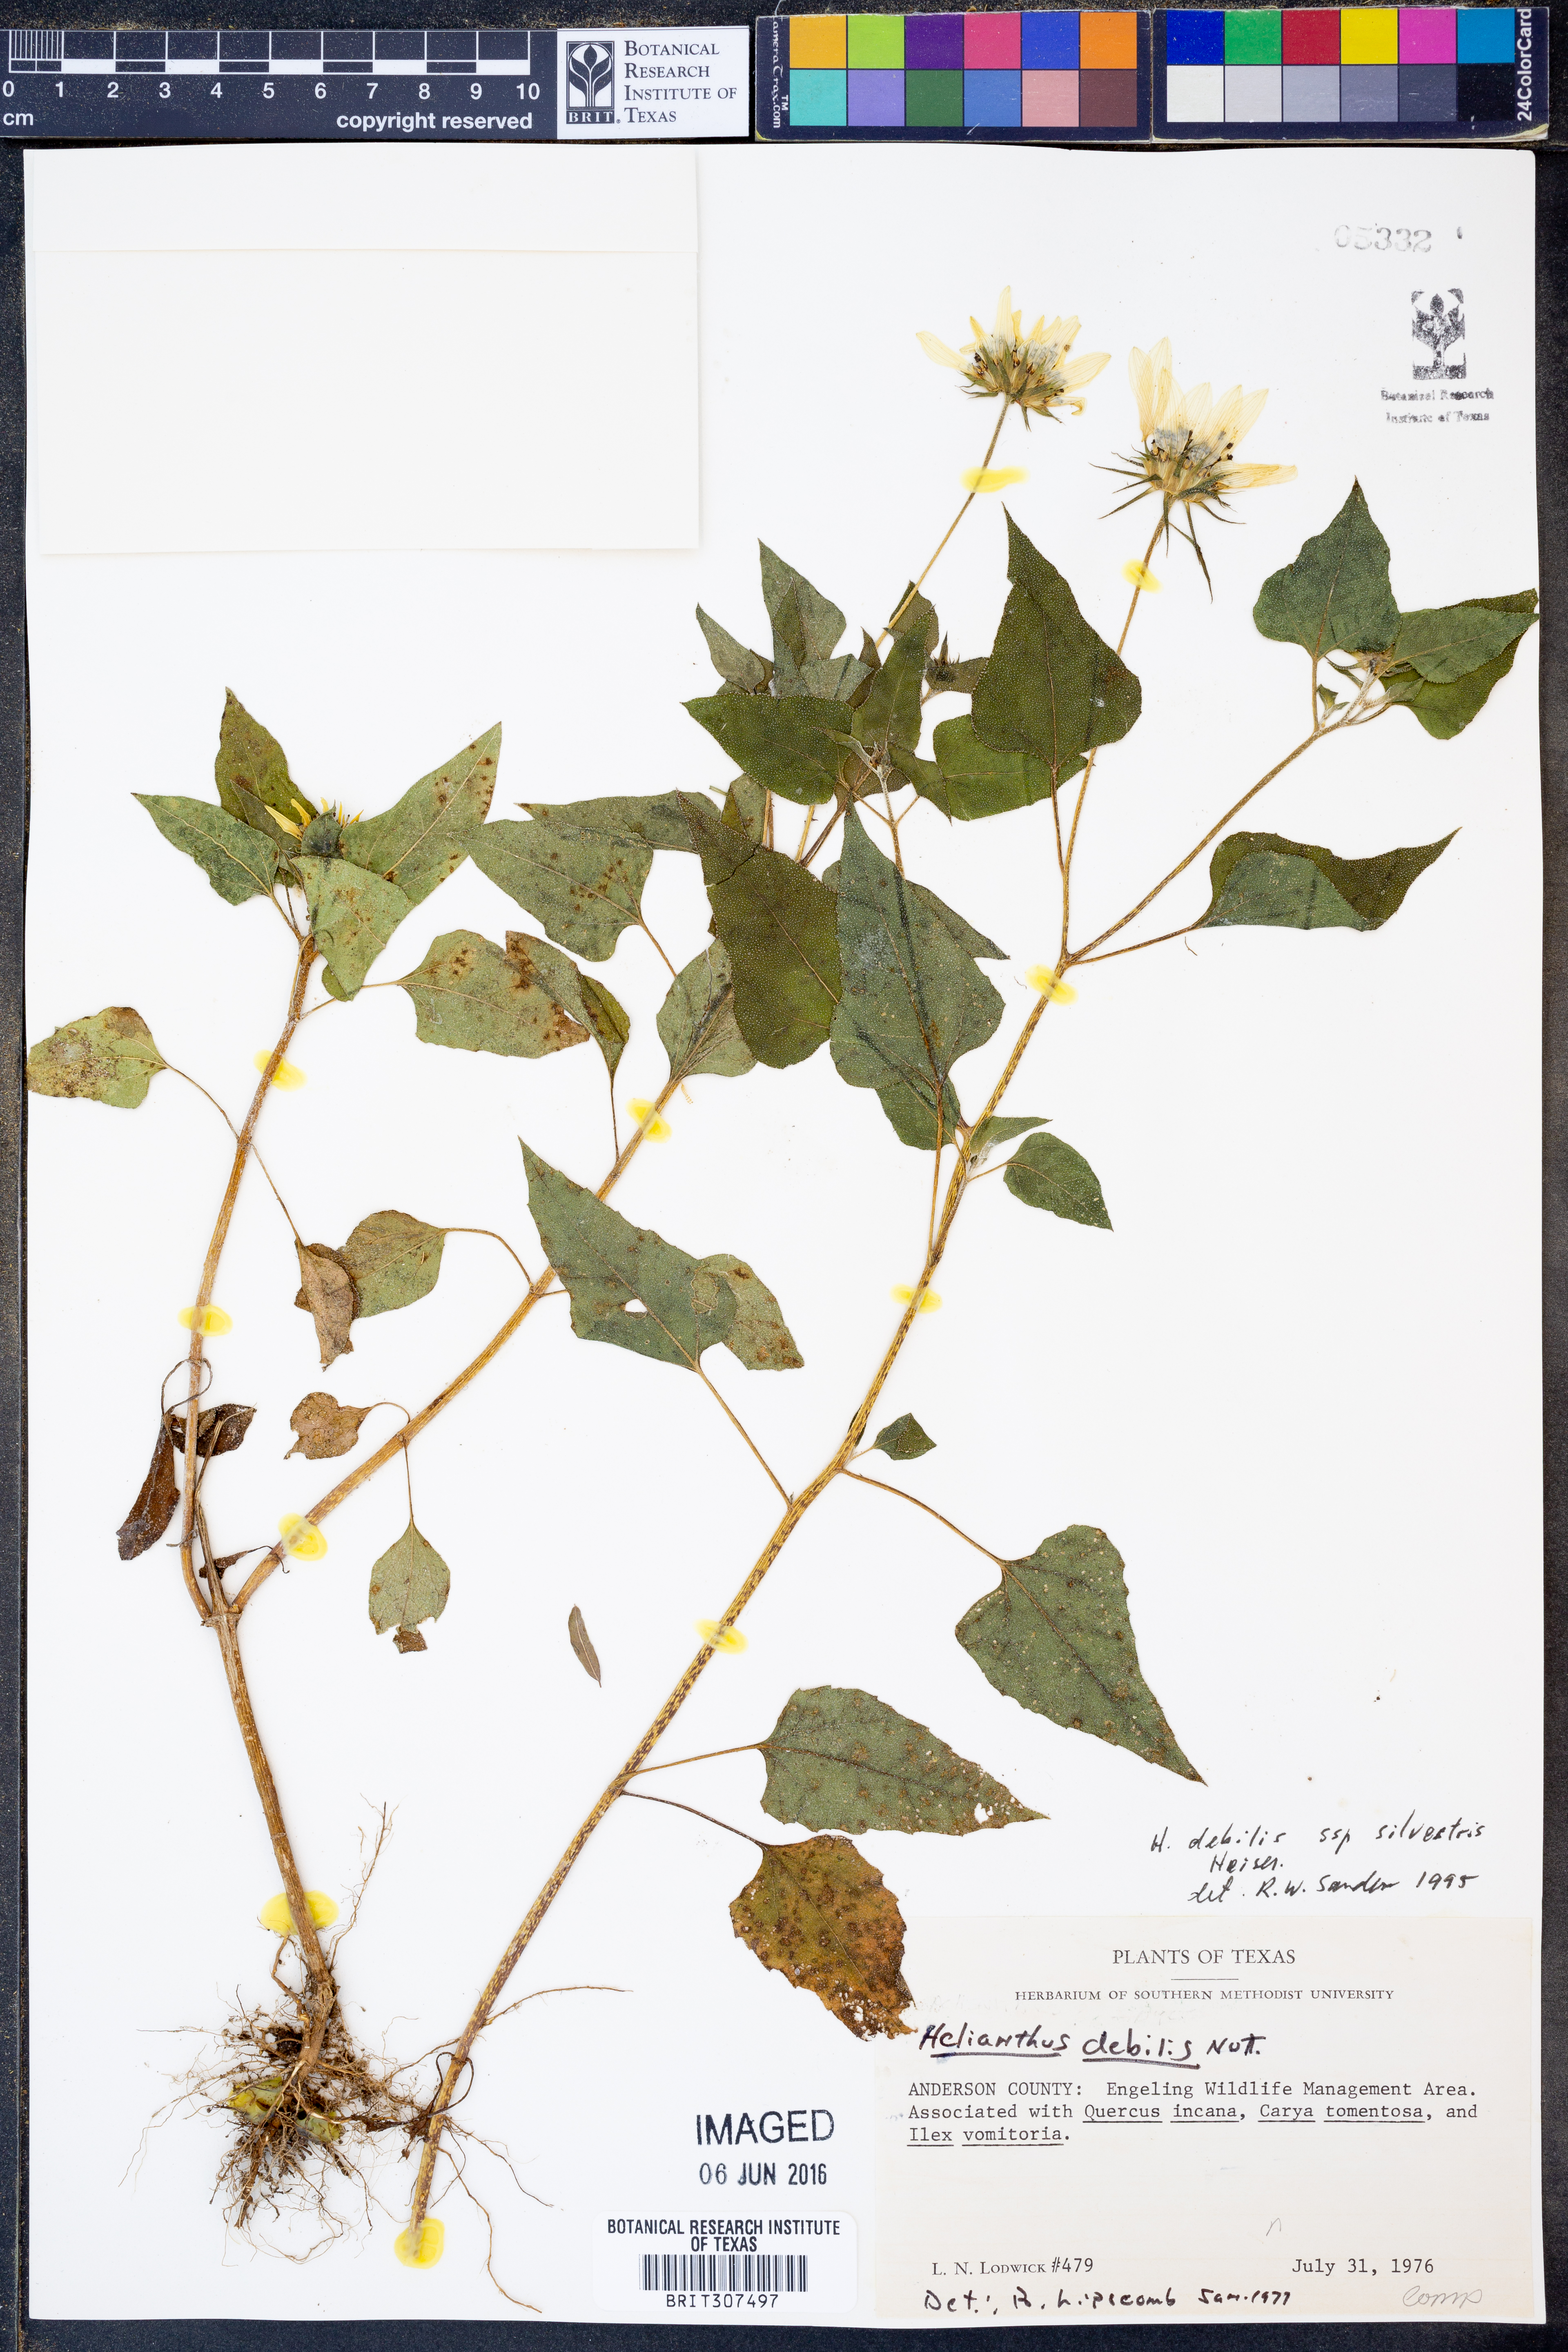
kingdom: Plantae
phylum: Tracheophyta
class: Magnoliopsida
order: Asterales
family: Asteraceae
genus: Helianthus
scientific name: Helianthus debilis
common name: Weak sunflower
